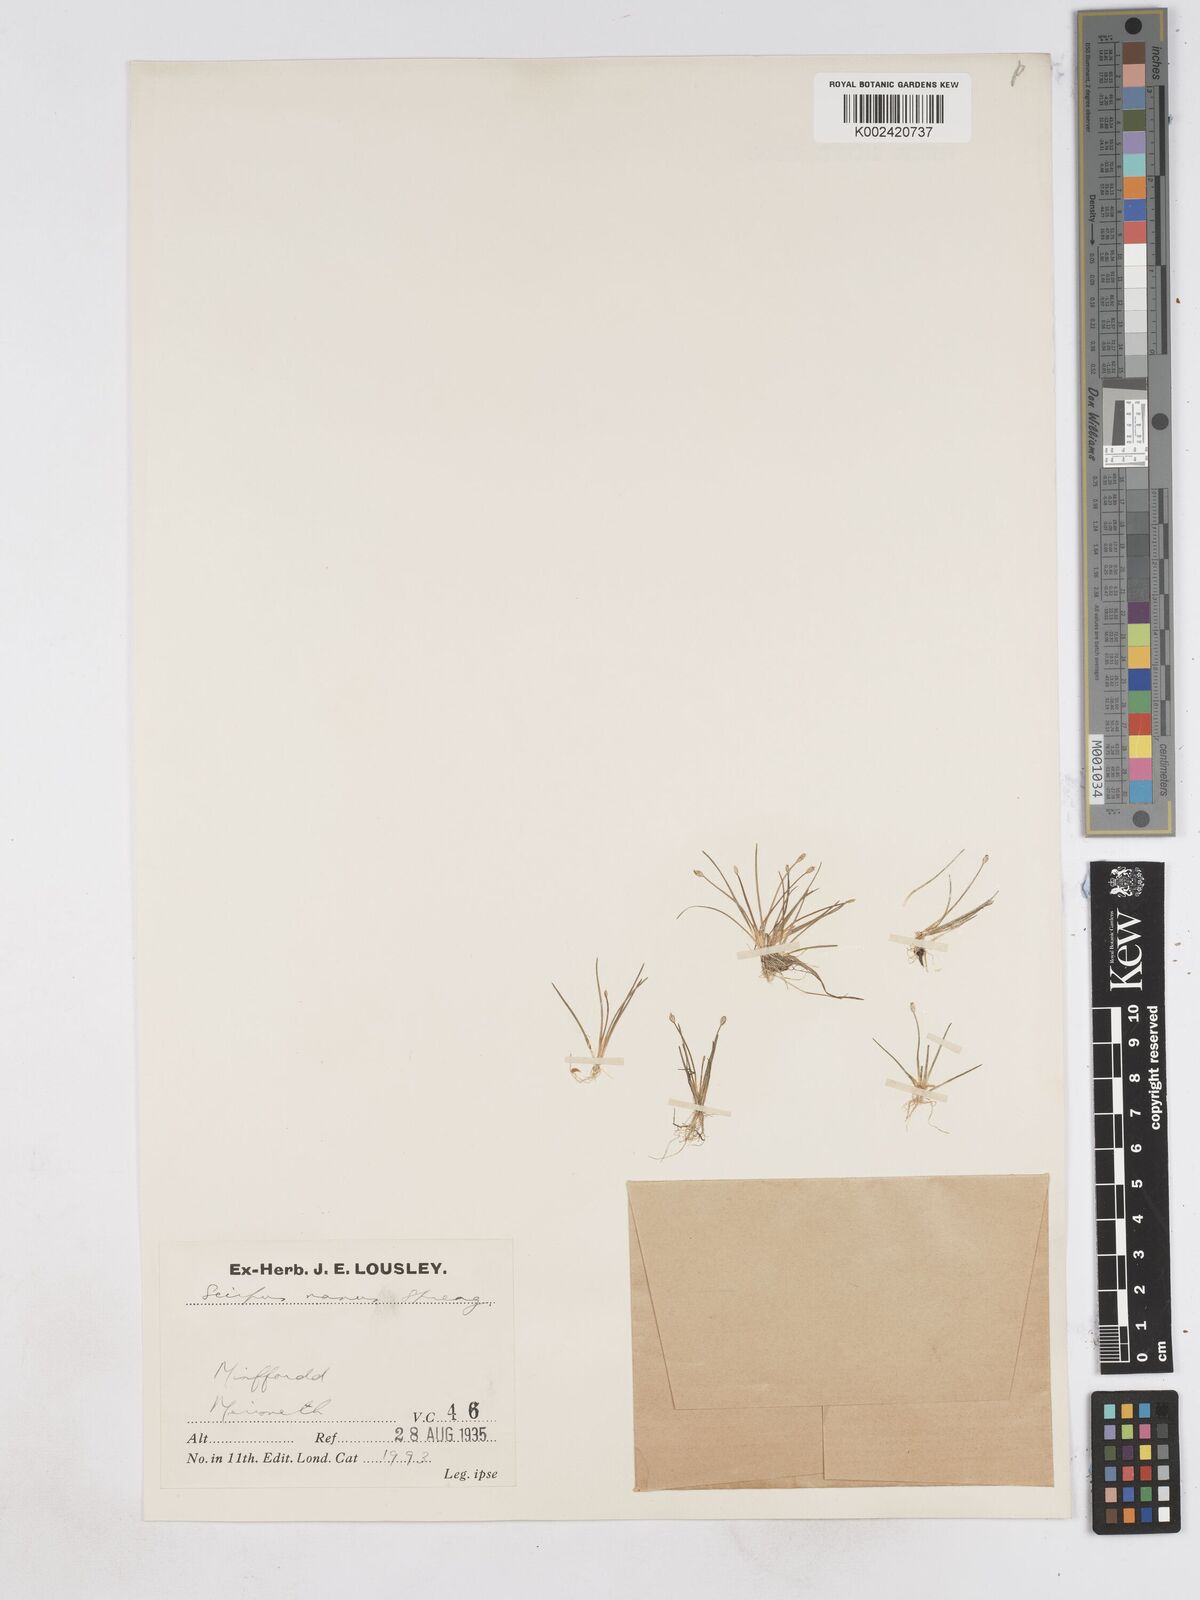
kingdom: Plantae
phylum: Tracheophyta
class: Liliopsida
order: Poales
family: Cyperaceae
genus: Eleocharis
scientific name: Eleocharis parvula
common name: Dwarf spike-rush
